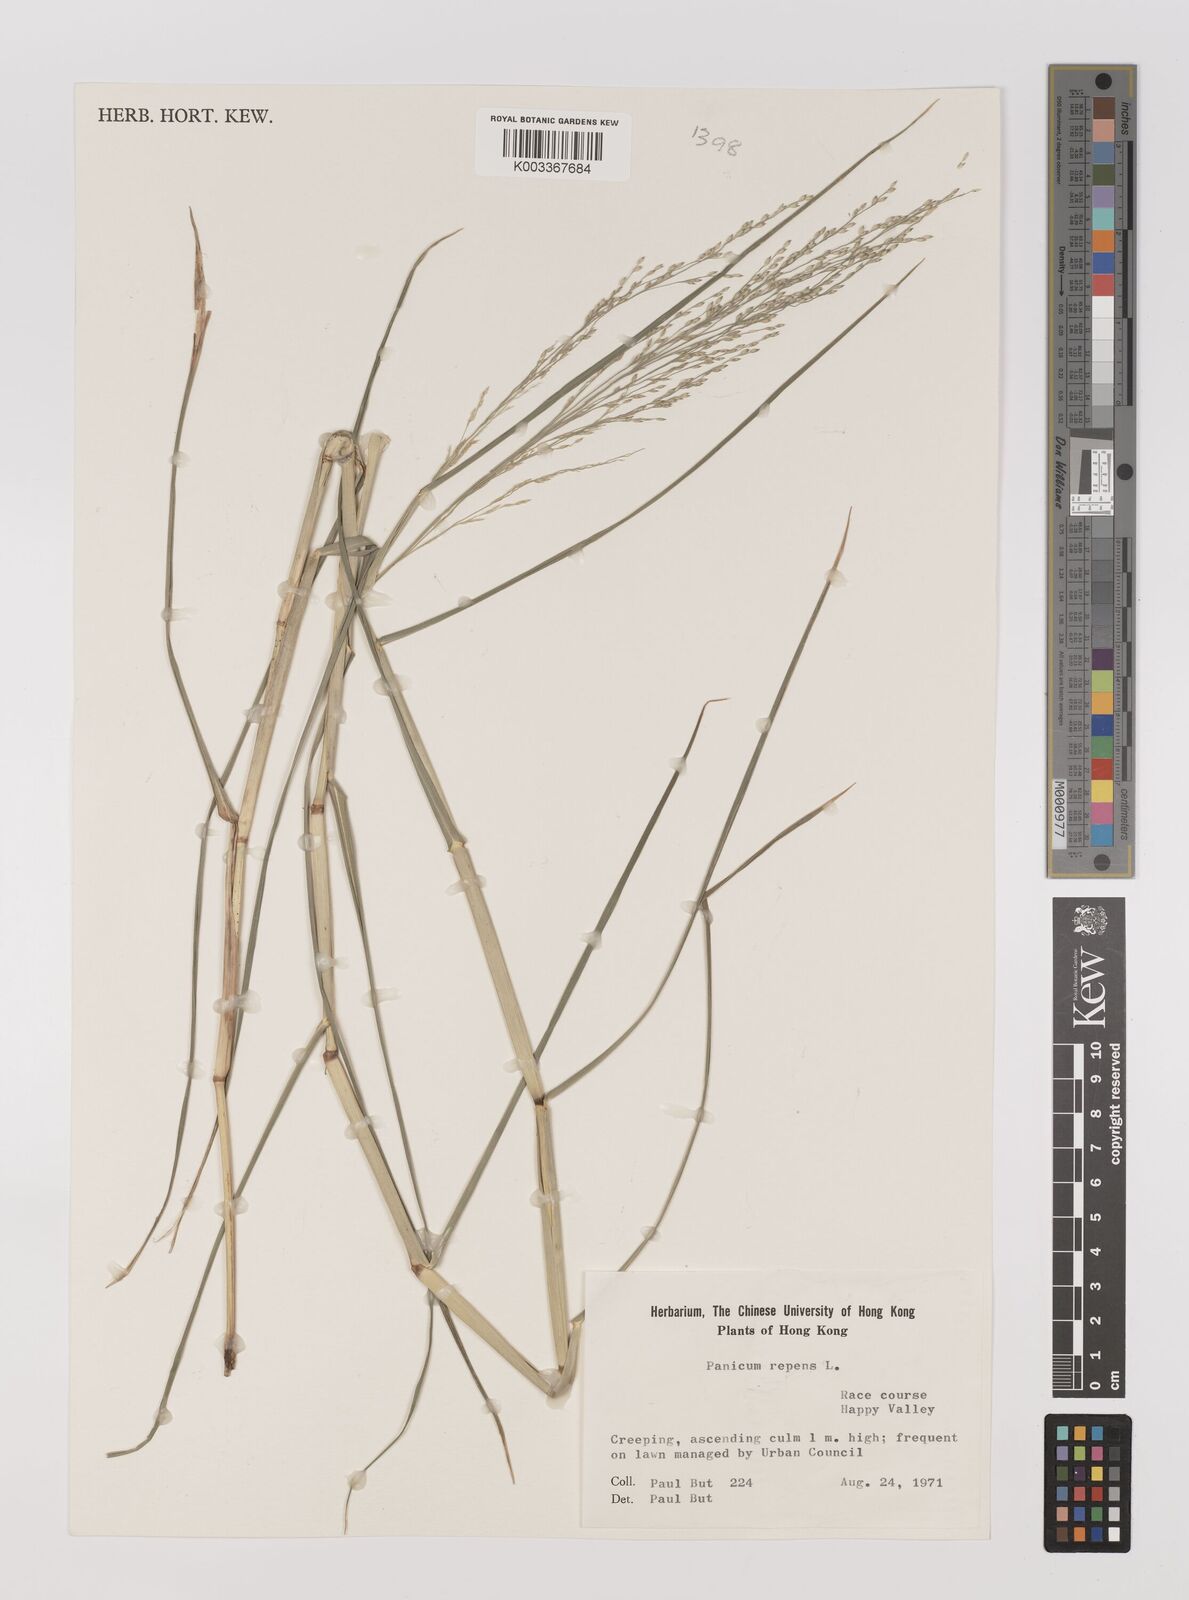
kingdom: Plantae
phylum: Tracheophyta
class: Liliopsida
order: Poales
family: Poaceae
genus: Panicum
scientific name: Panicum repens
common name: Torpedo grass
